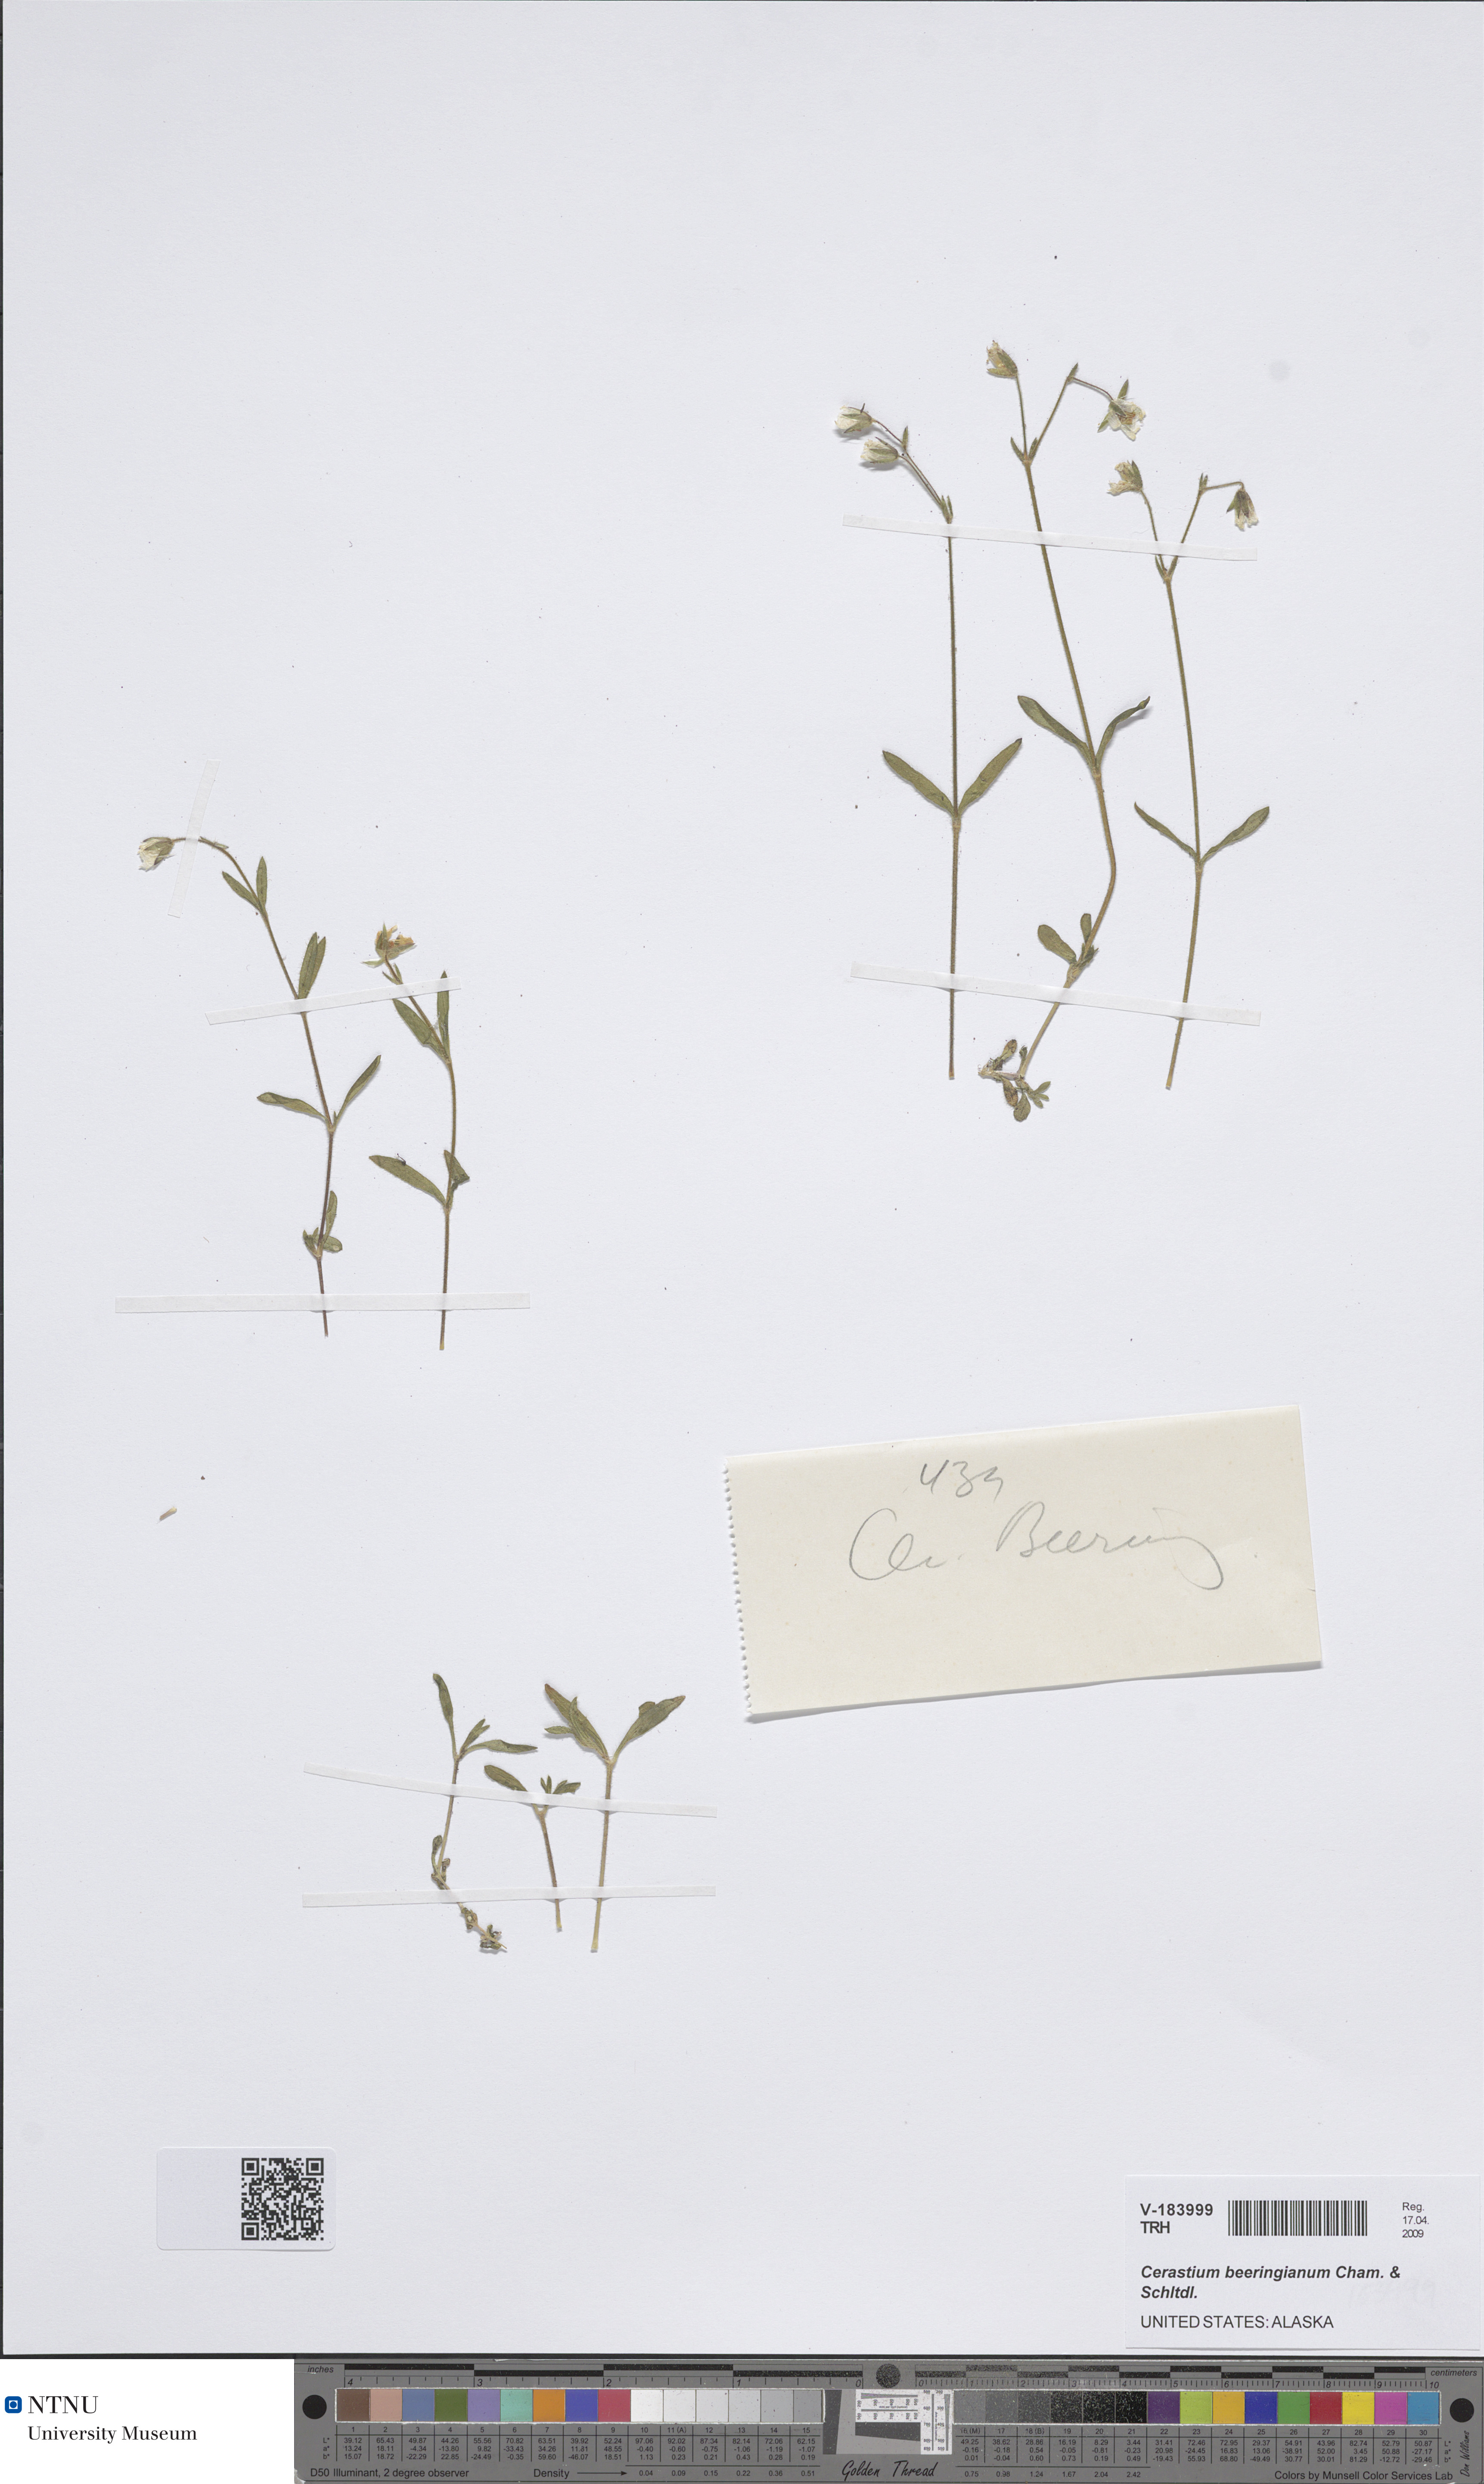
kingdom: Plantae
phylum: Tracheophyta
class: Magnoliopsida
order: Caryophyllales
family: Caryophyllaceae
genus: Cerastium
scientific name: Cerastium beeringianum
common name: Bering mouse-ear chickweed
